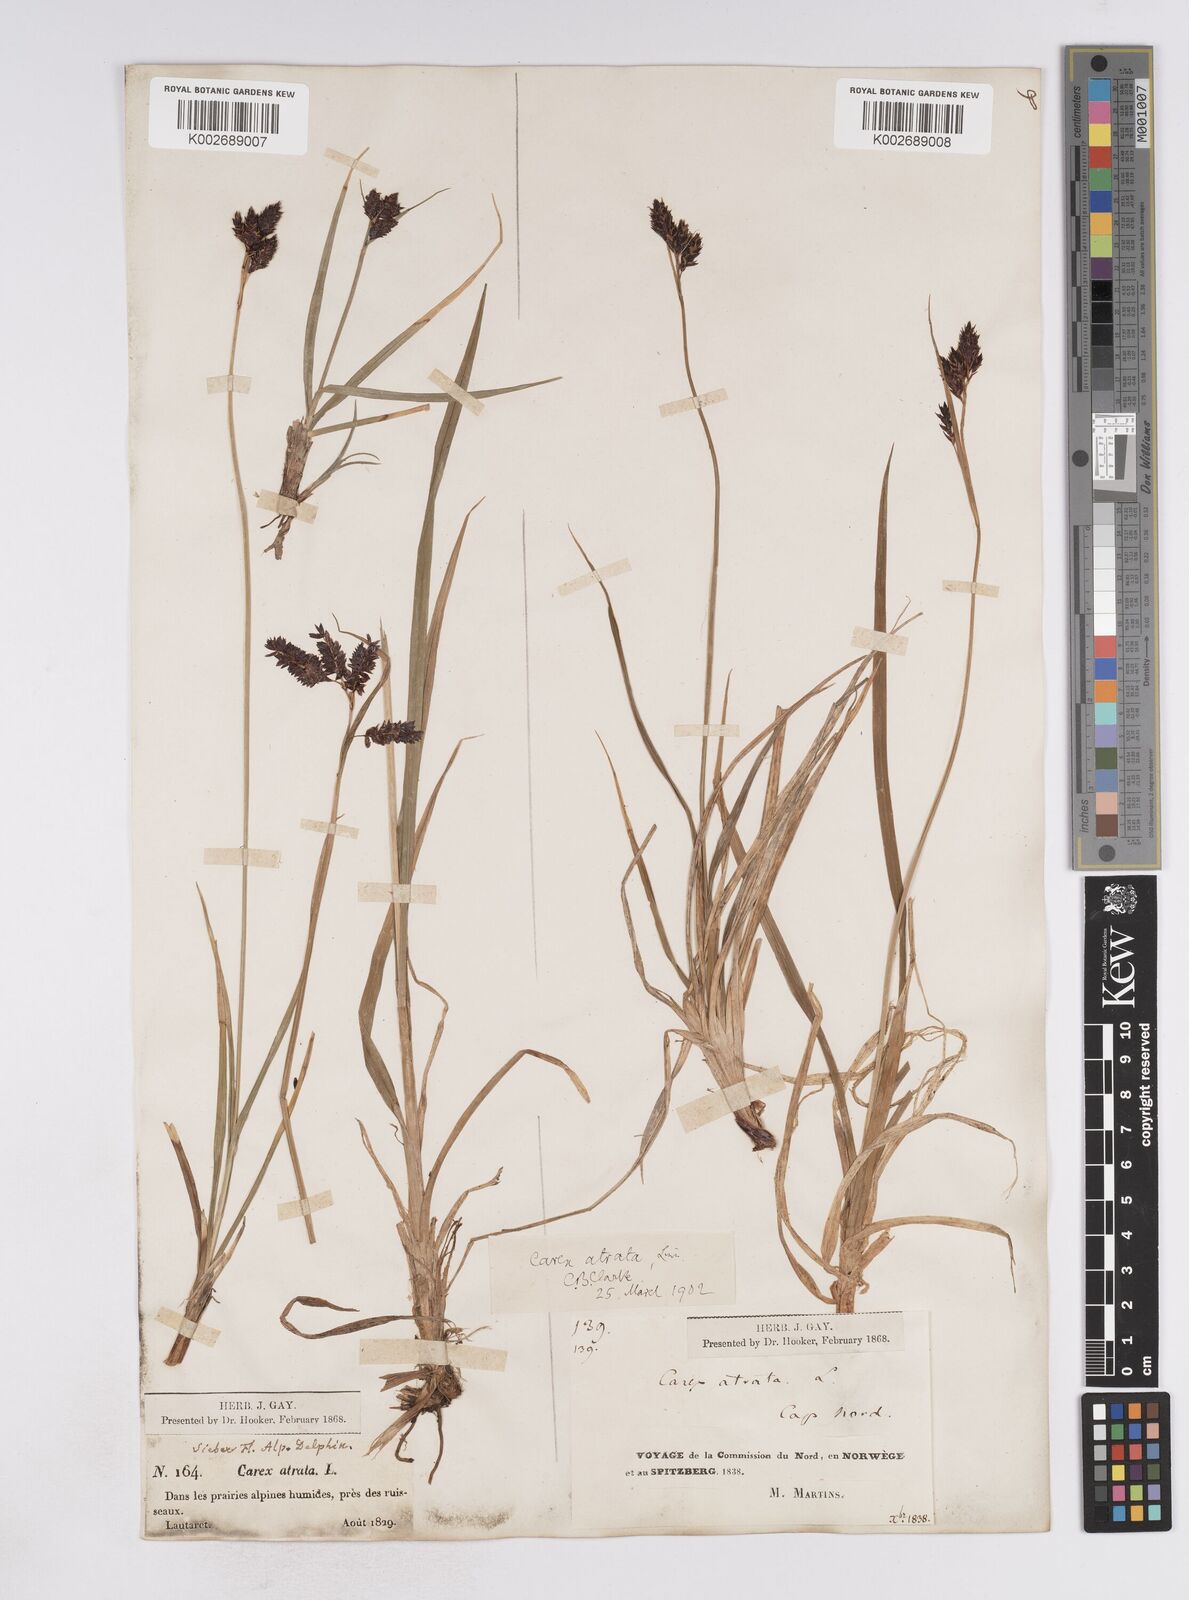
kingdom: Plantae
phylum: Tracheophyta
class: Liliopsida
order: Poales
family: Cyperaceae
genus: Carex
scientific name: Carex atrata
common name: Black alpine sedge
